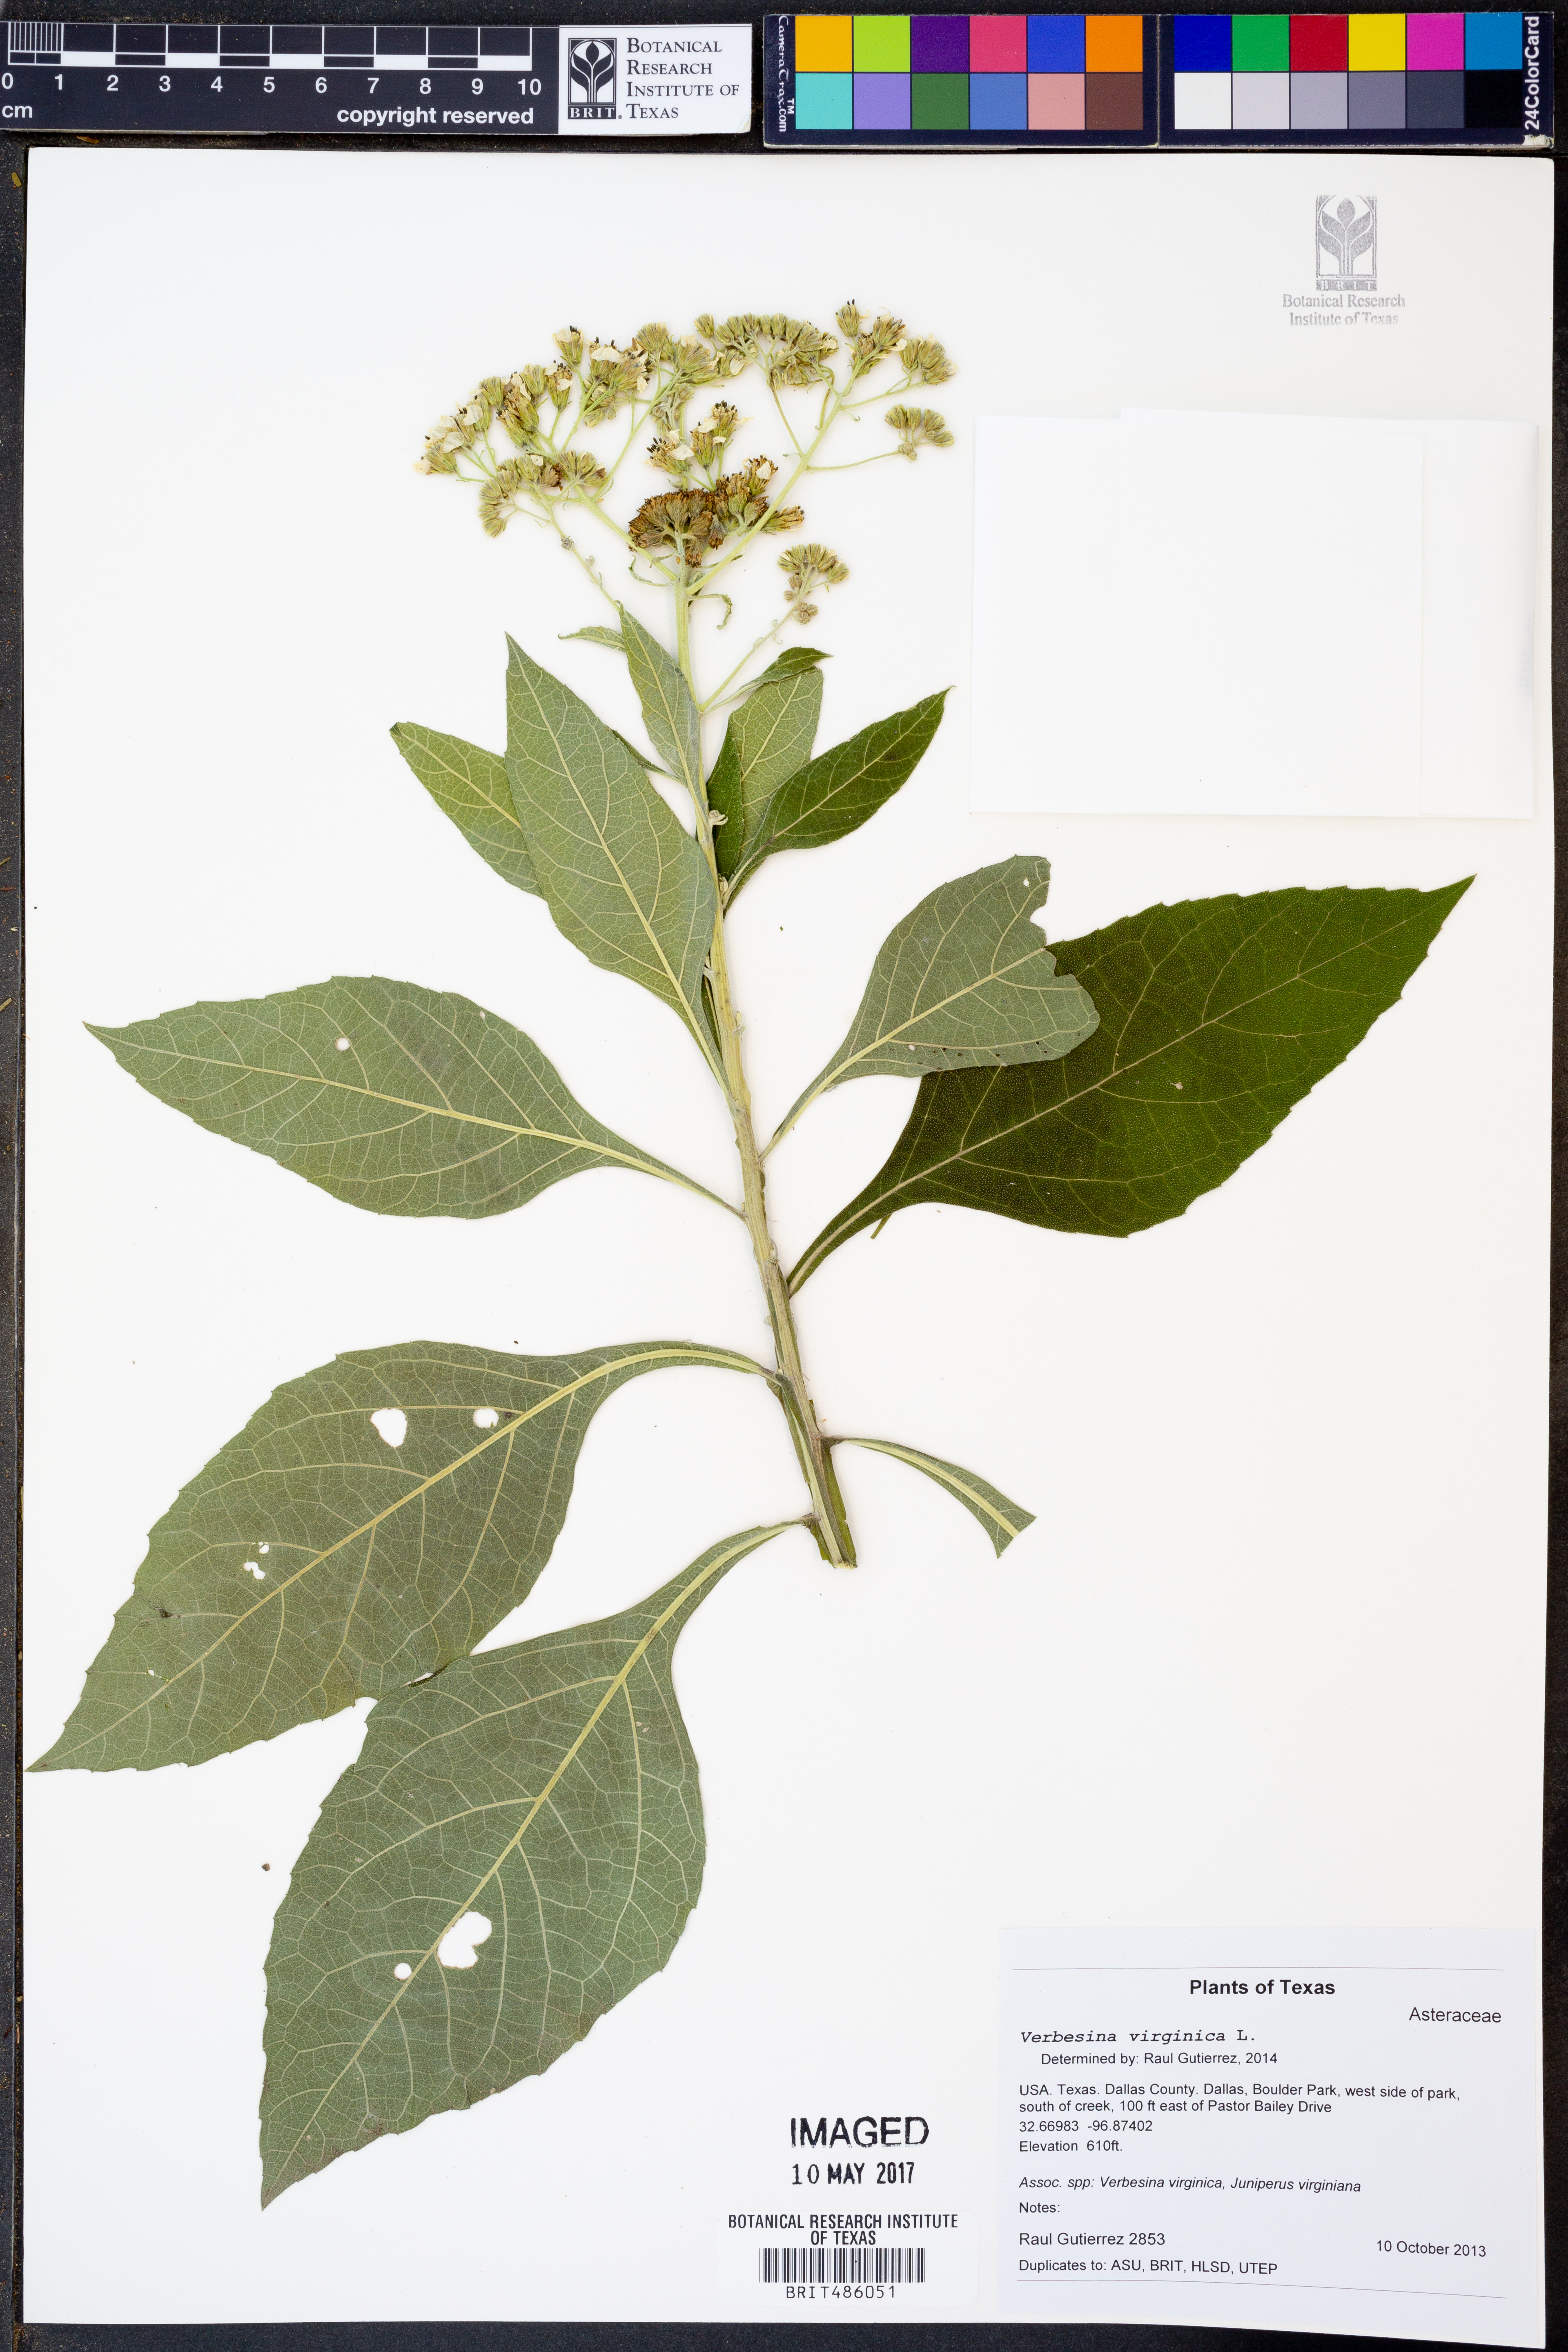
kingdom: Plantae
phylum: Tracheophyta
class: Magnoliopsida
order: Asterales
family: Asteraceae
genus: Verbesina
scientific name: Verbesina virginica
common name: Frostweed
